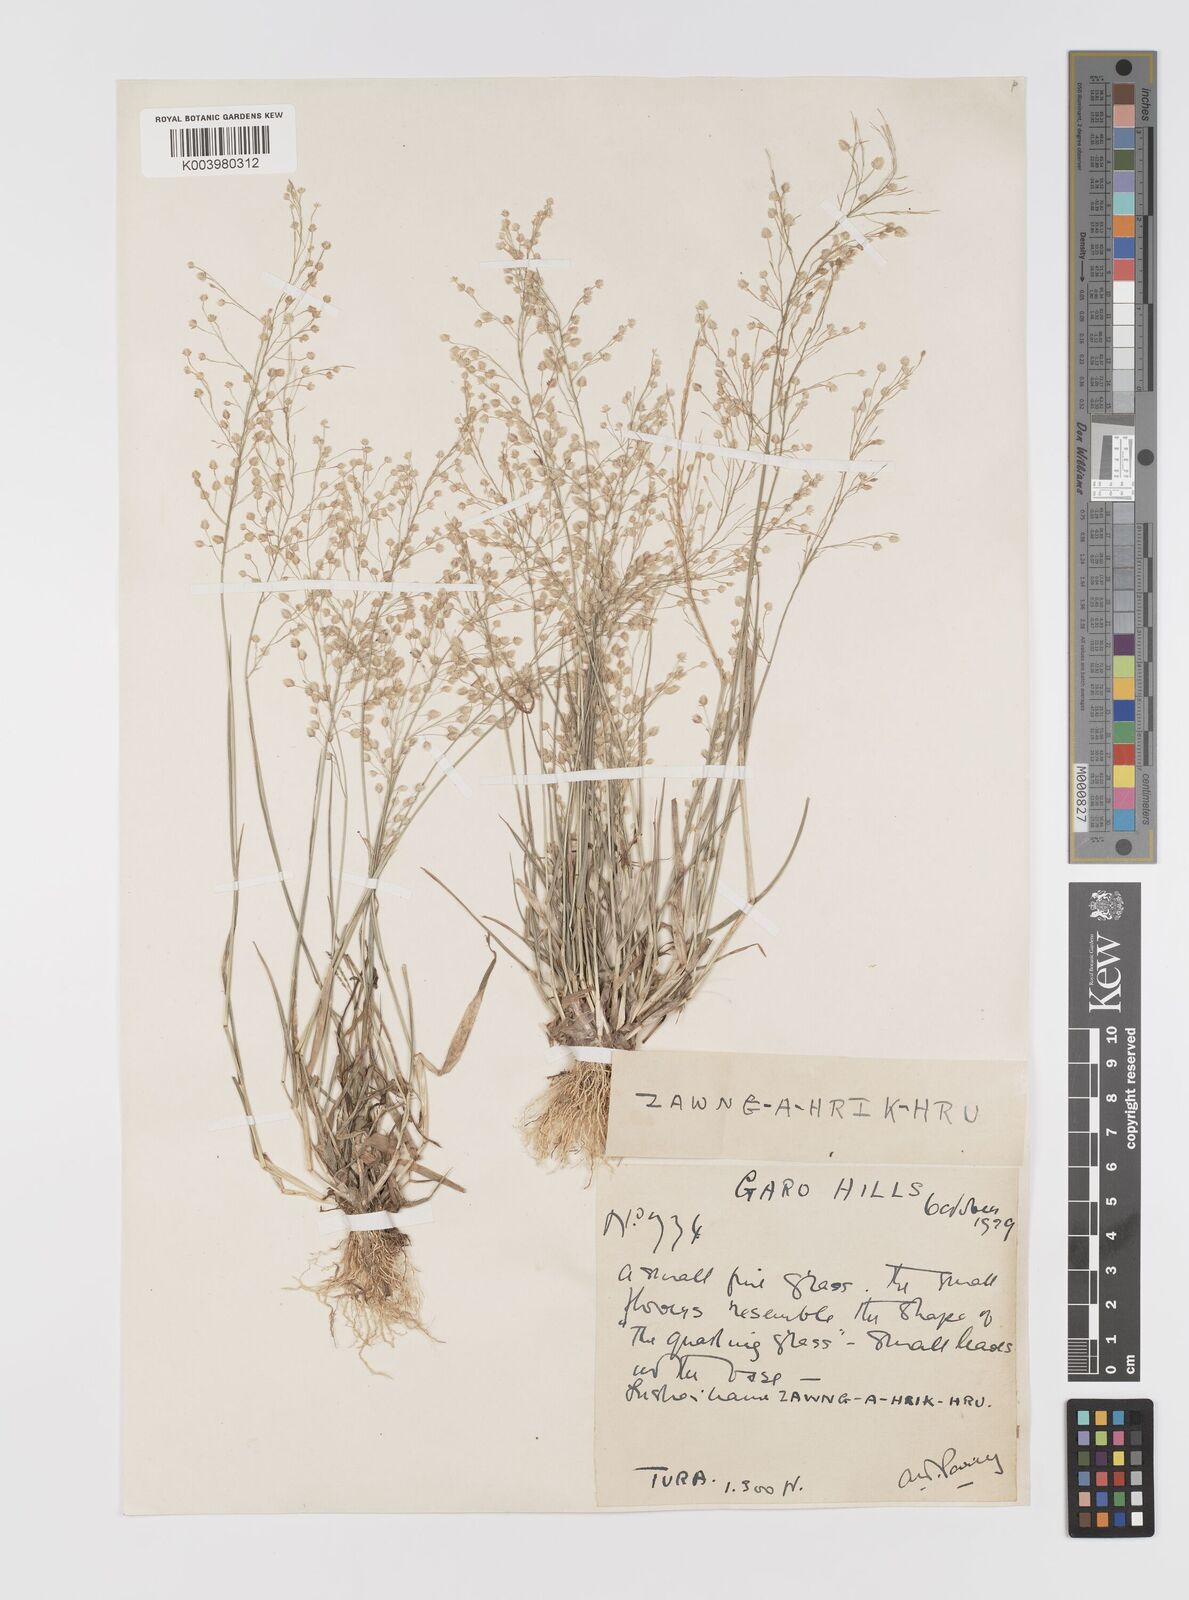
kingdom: Plantae
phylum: Tracheophyta
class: Liliopsida
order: Poales
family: Poaceae
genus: Eragrostis
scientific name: Eragrostis unioloides
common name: Chinese lovegrass
